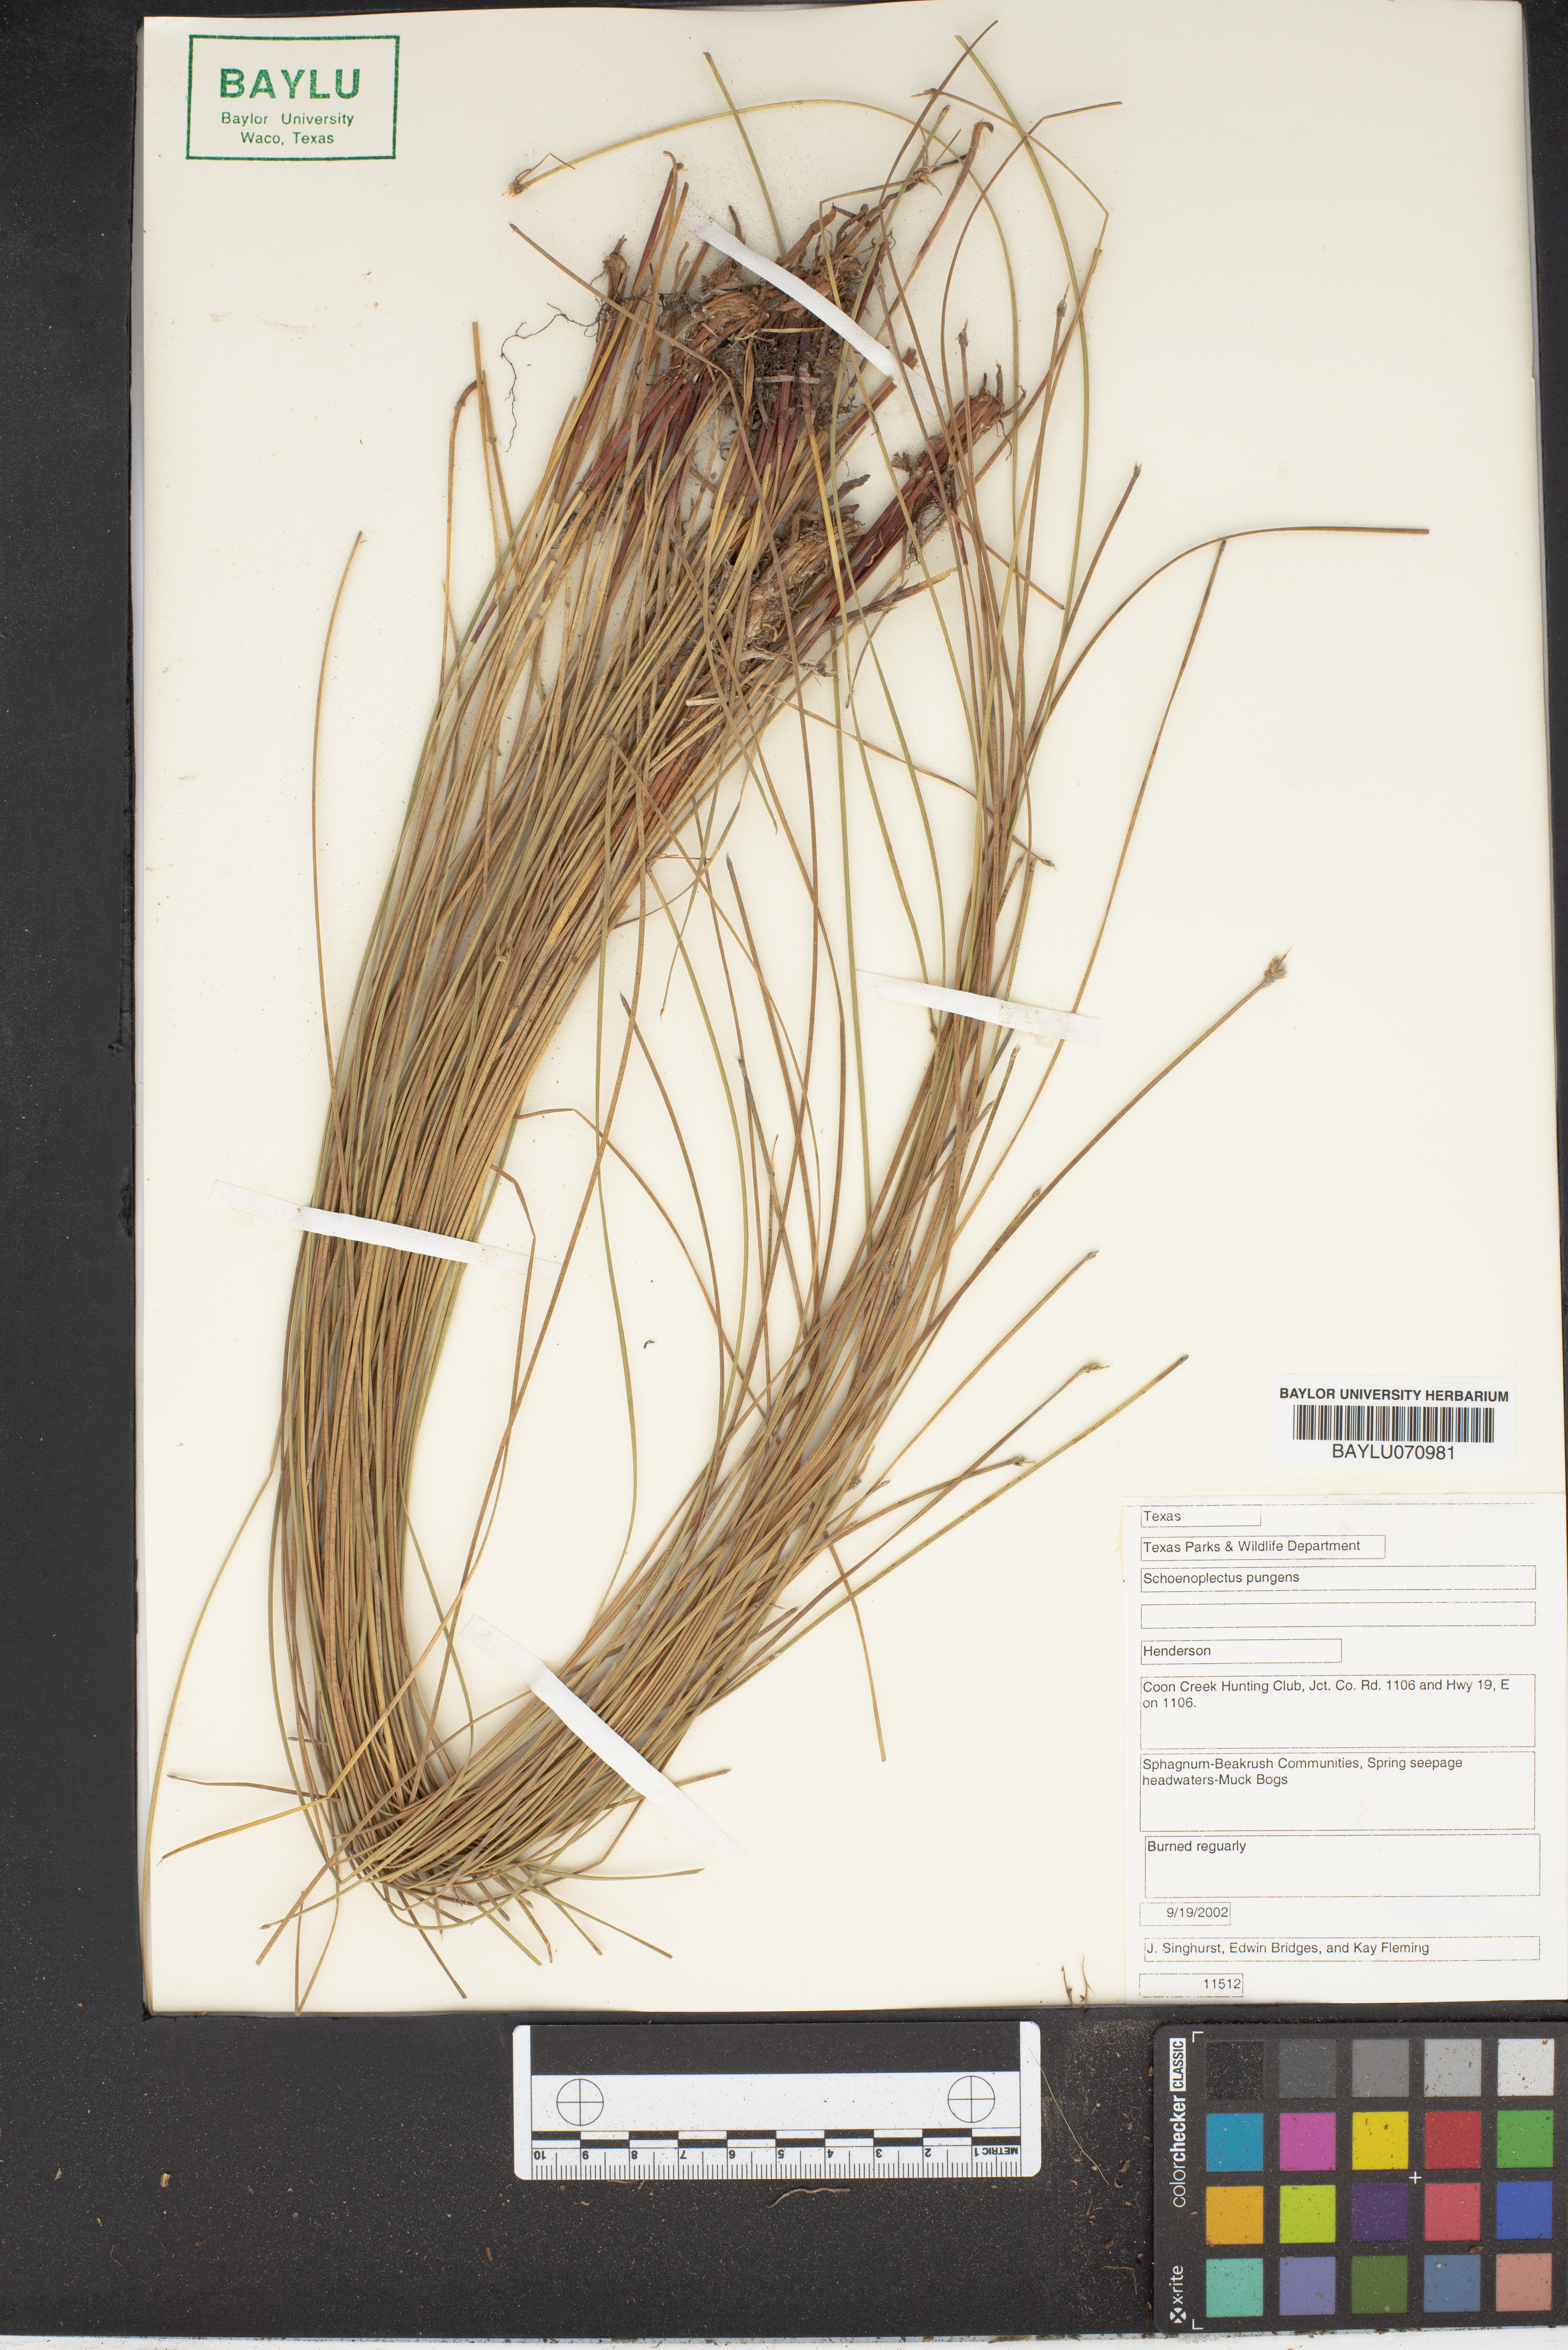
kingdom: Plantae
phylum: Tracheophyta
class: Liliopsida
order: Poales
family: Cyperaceae
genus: Schoenoplectus
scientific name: Schoenoplectus pungens
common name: Sharp club-rush
